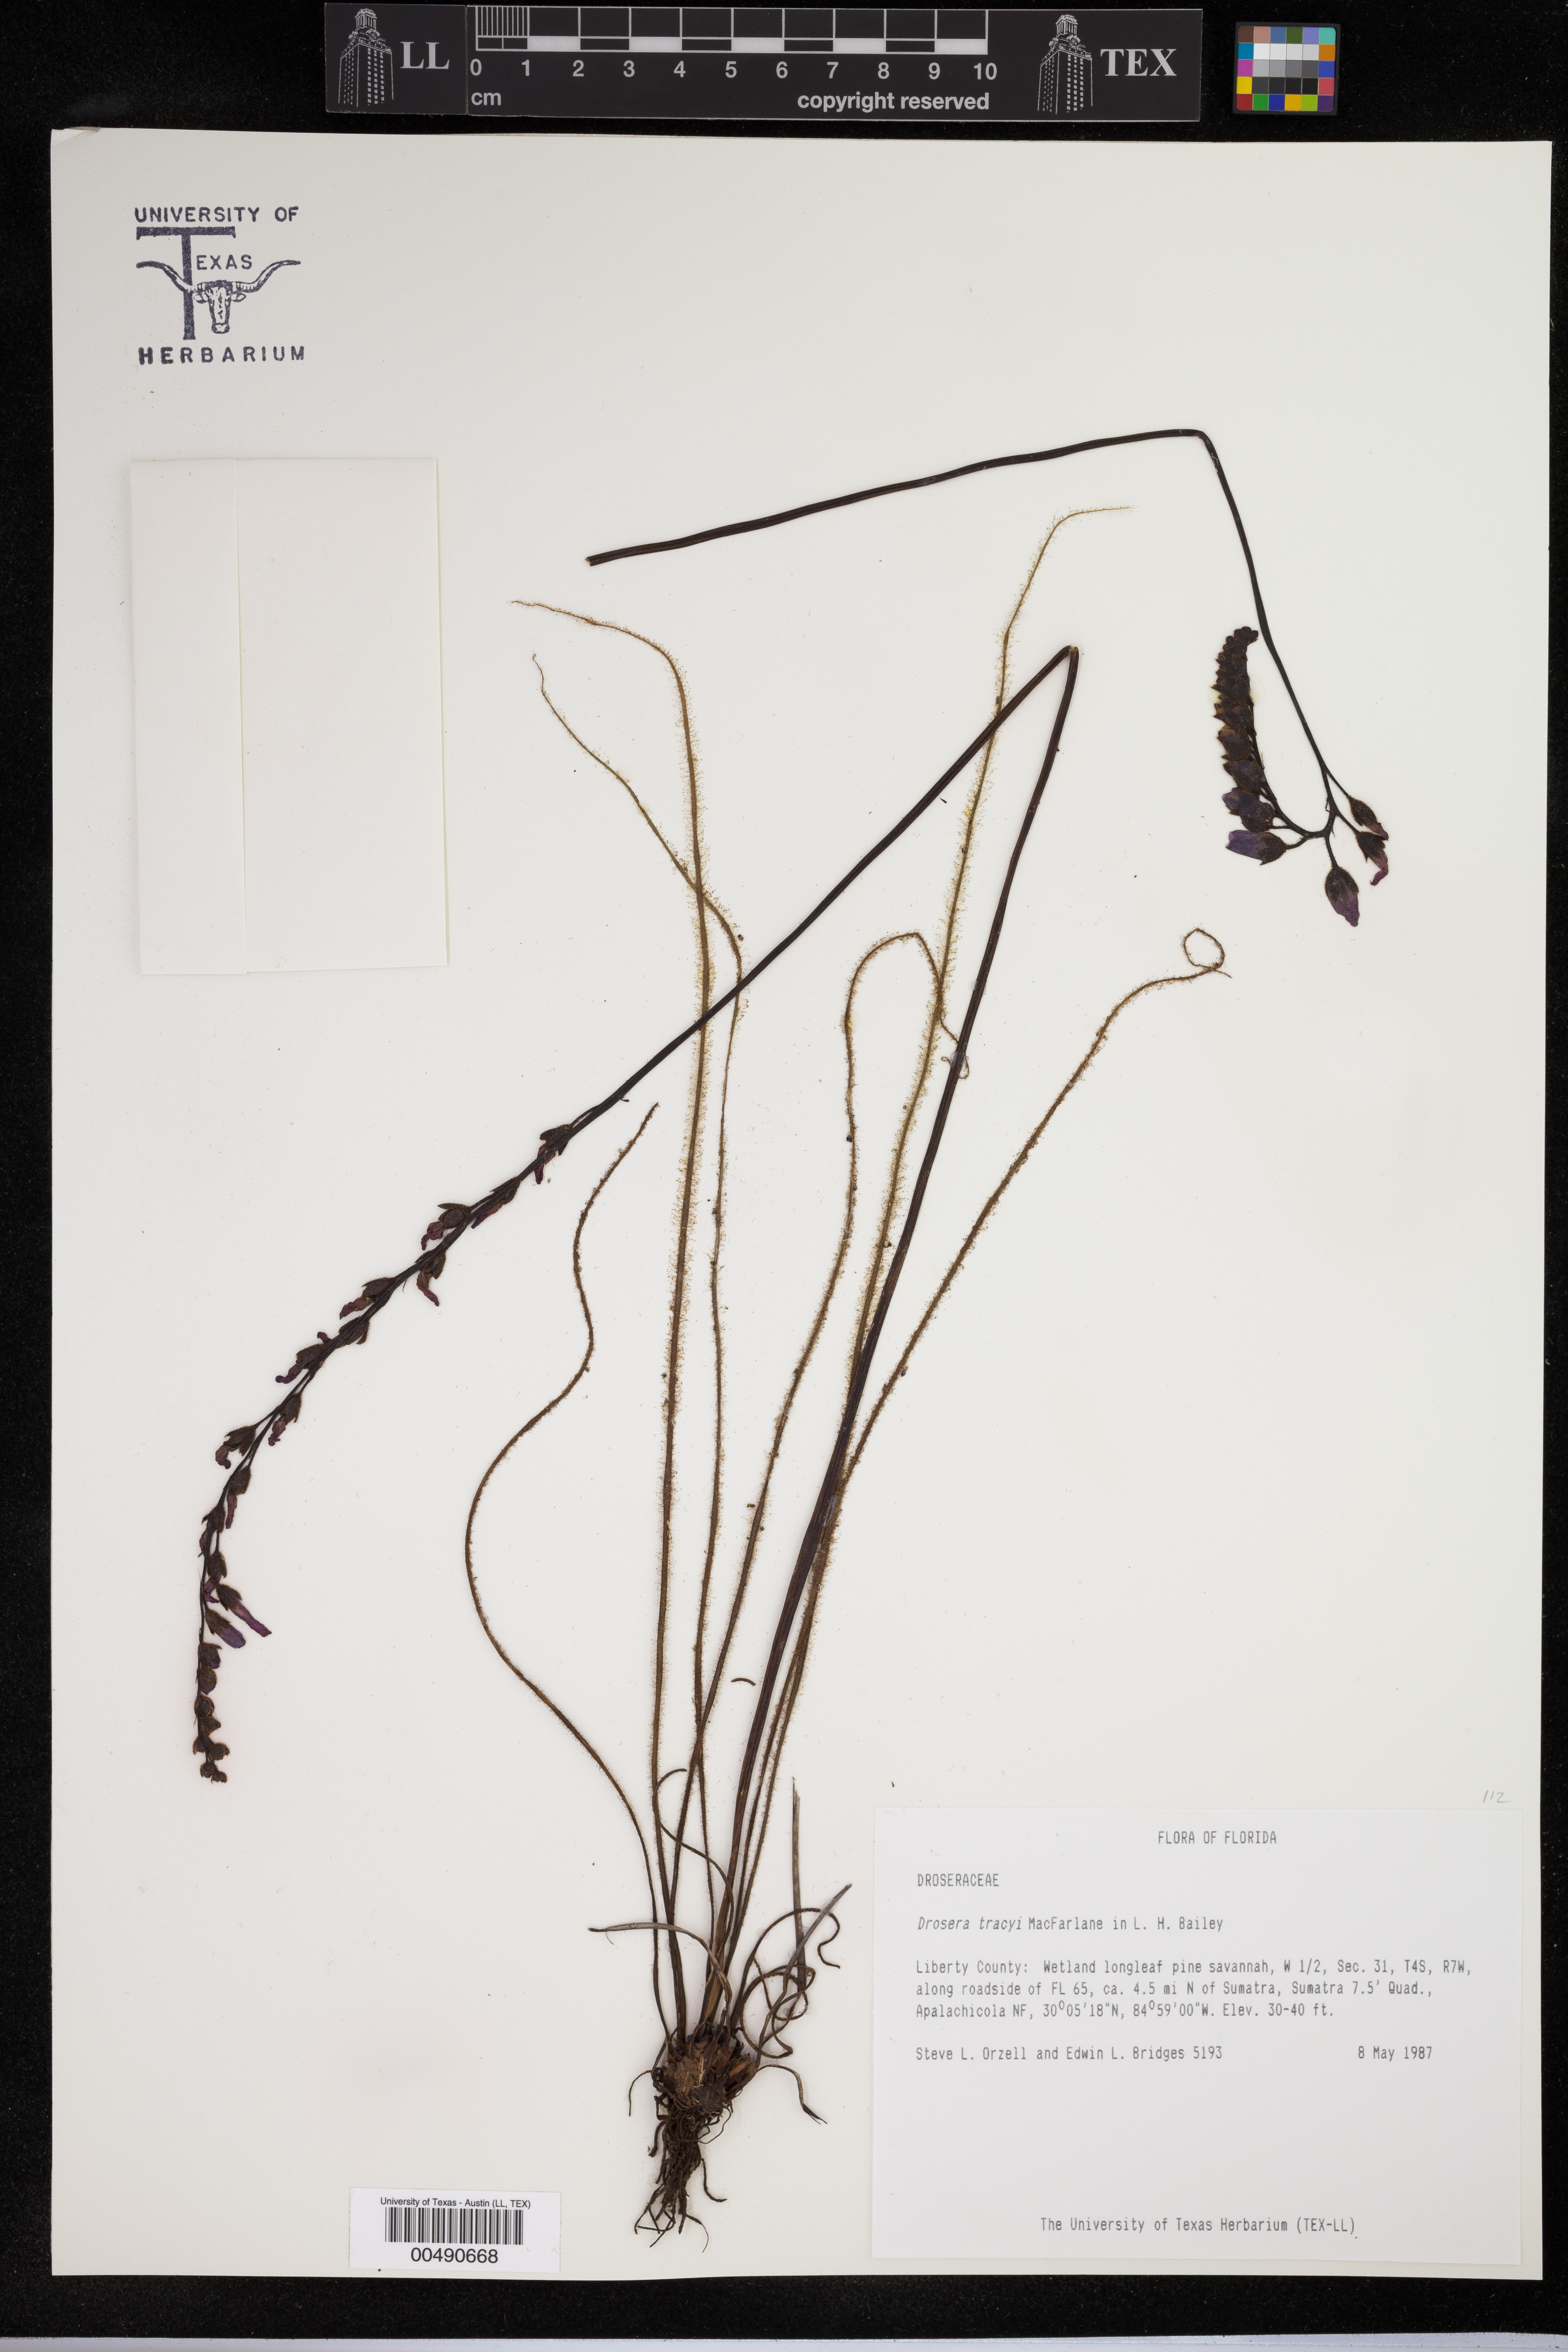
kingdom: Plantae
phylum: Tracheophyta
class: Magnoliopsida
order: Caryophyllales
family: Droseraceae
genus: Drosera
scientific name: Drosera filiformis
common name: Dew-thread
